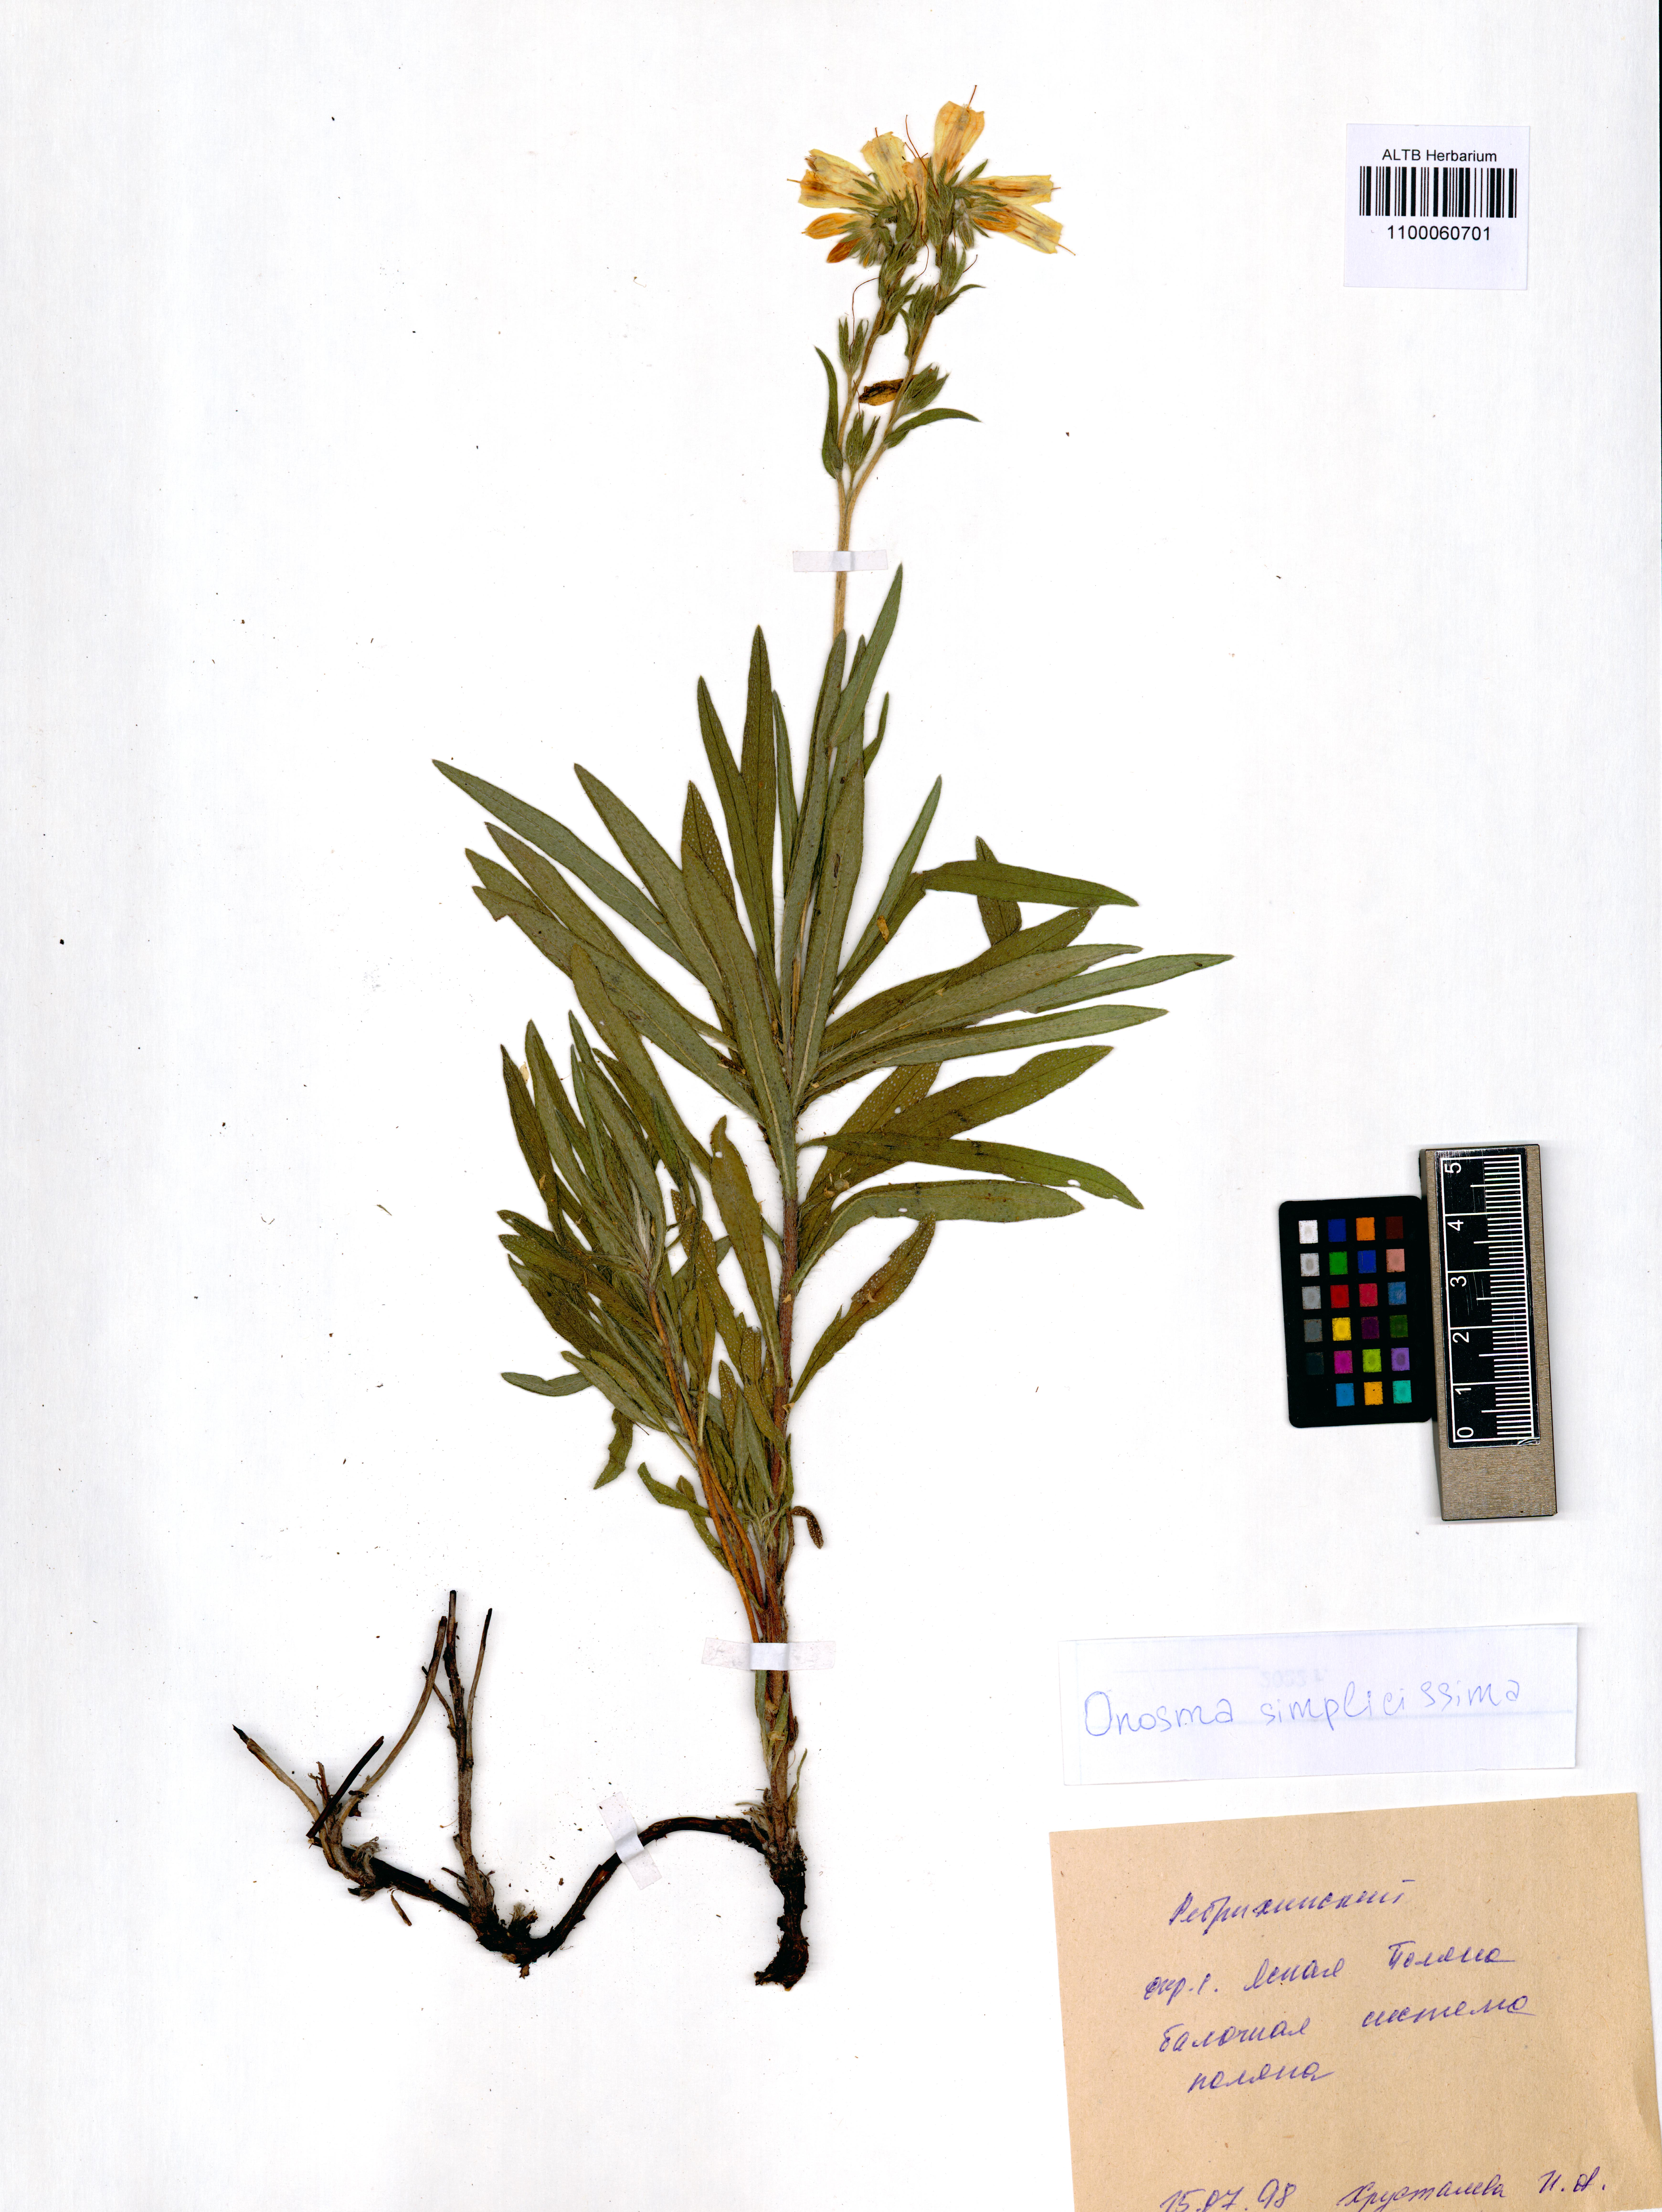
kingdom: Plantae
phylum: Tracheophyta
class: Magnoliopsida
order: Boraginales
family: Boraginaceae
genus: Onosma
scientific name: Onosma simplicissima
